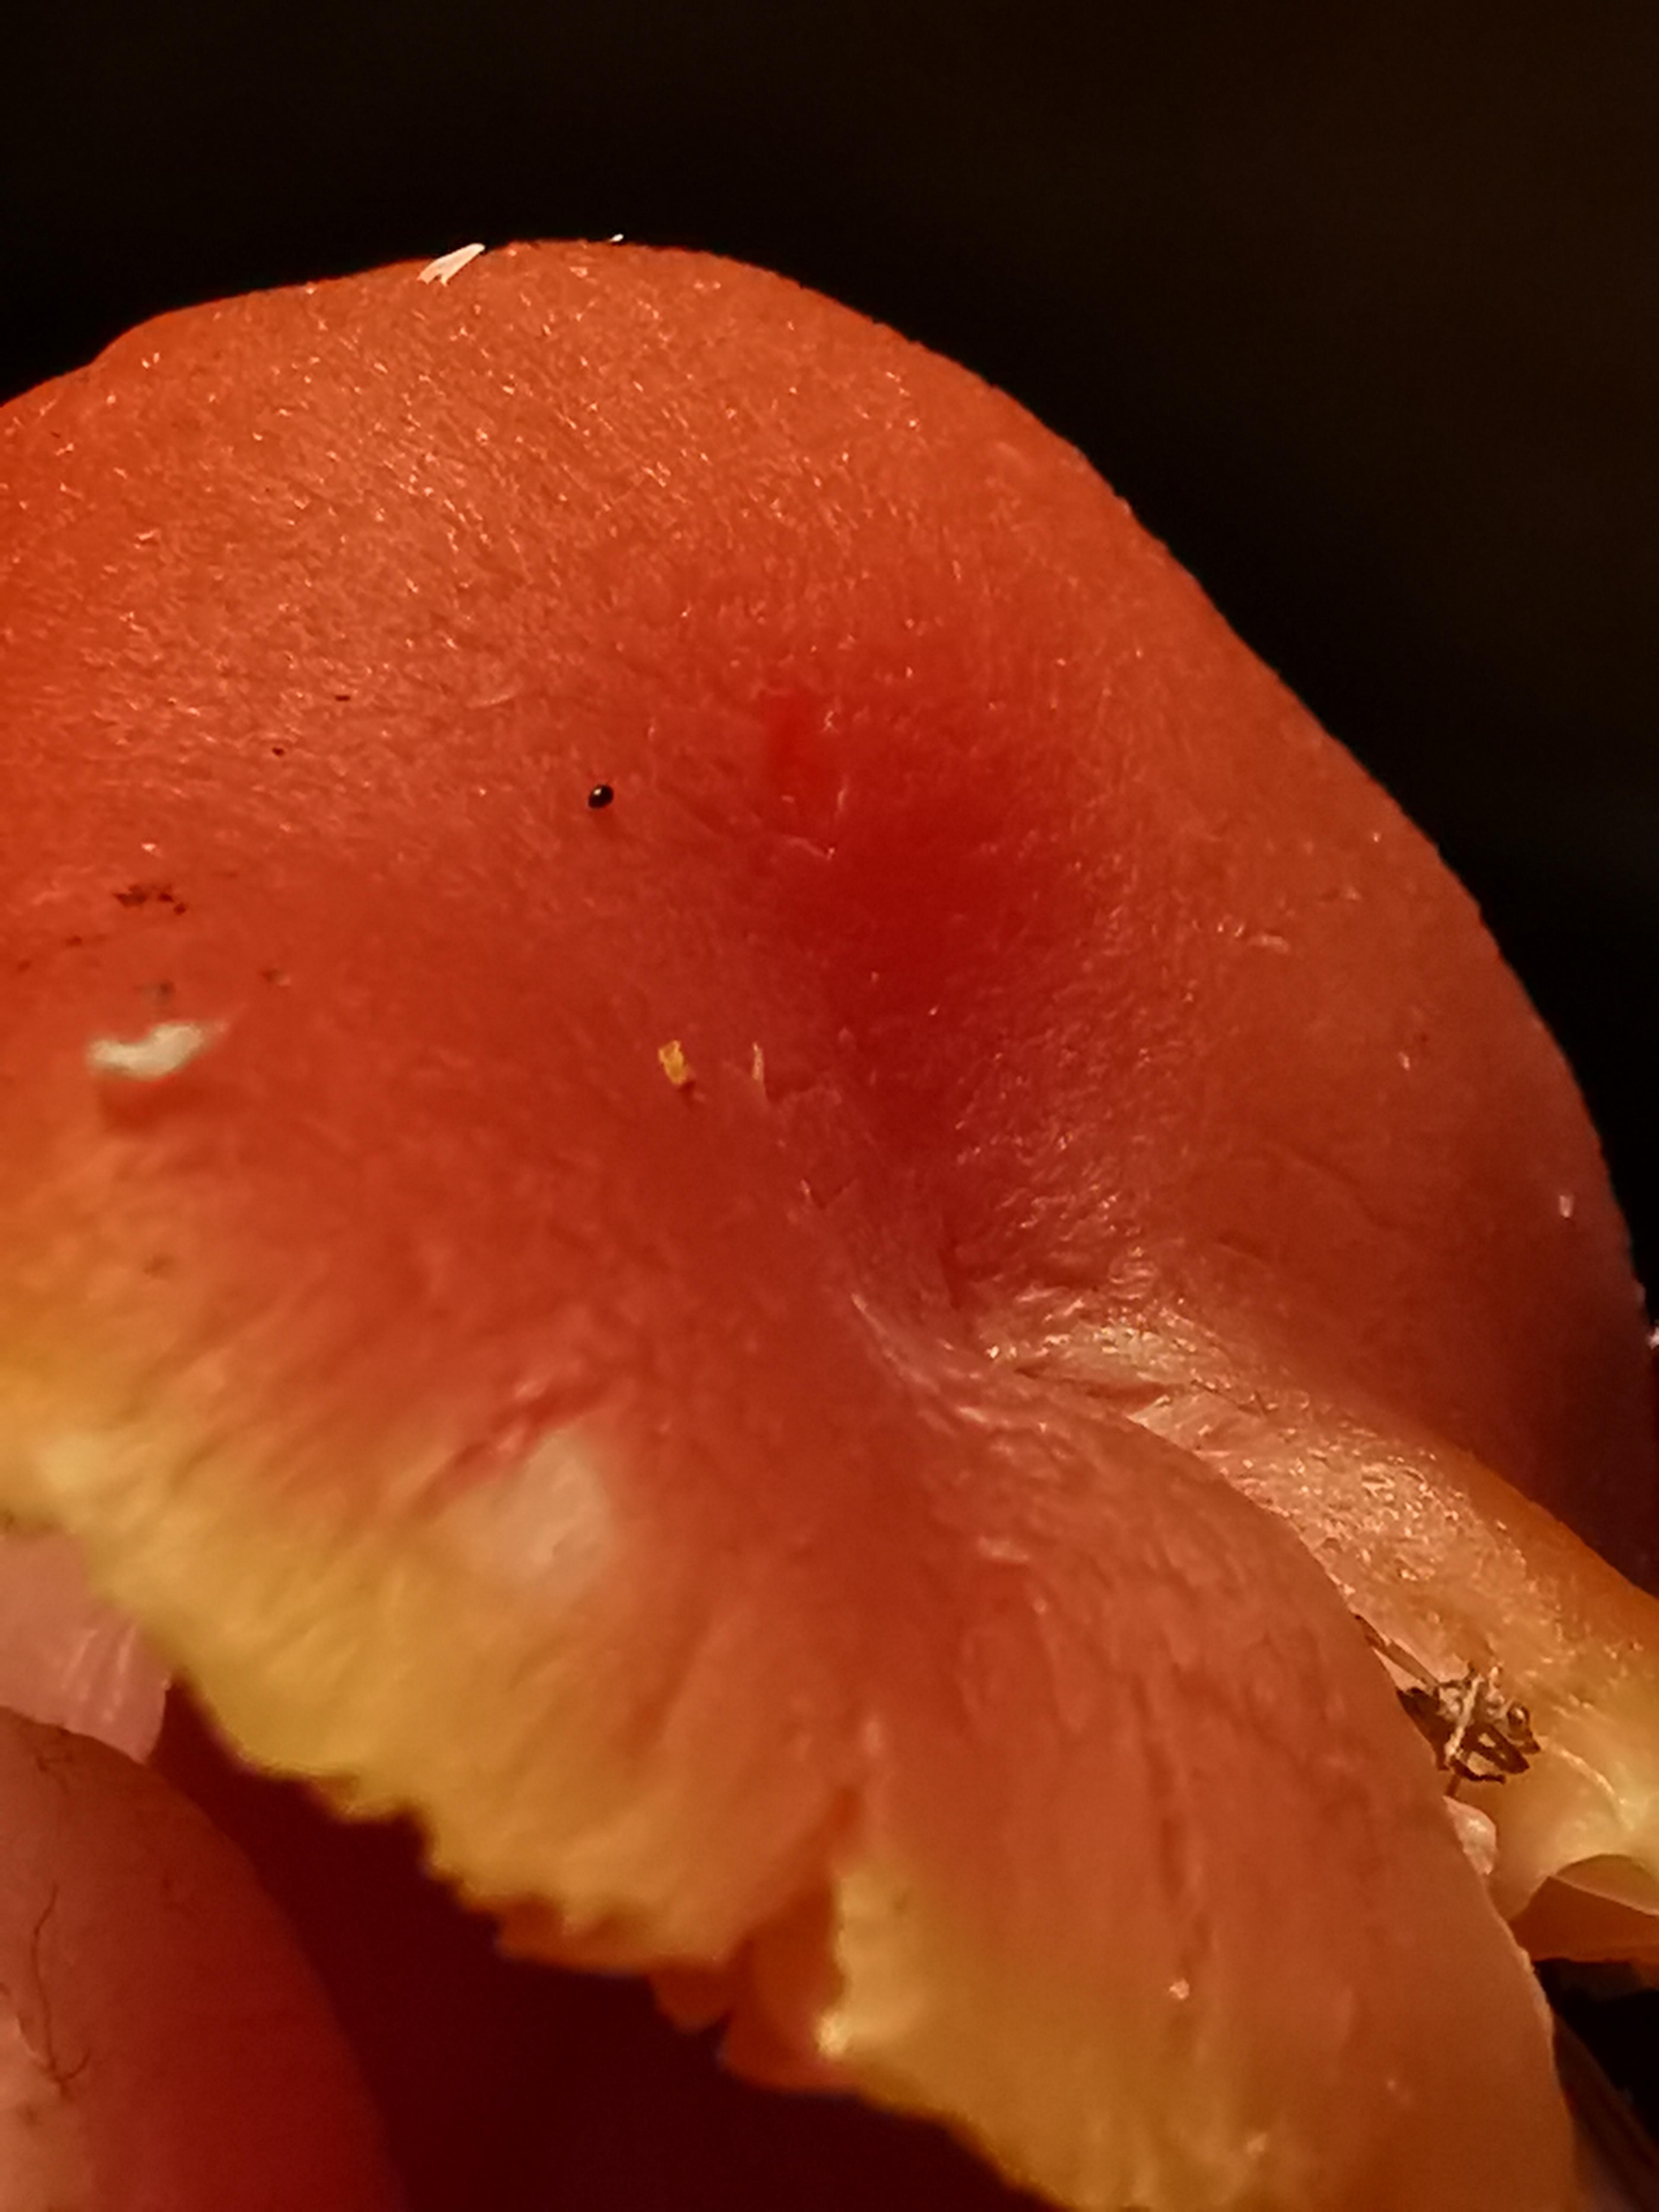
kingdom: Fungi
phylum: Basidiomycota
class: Agaricomycetes
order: Agaricales
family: Hygrophoraceae
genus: Hygrocybe
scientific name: Hygrocybe coccinea
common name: cinnober-vokshat
